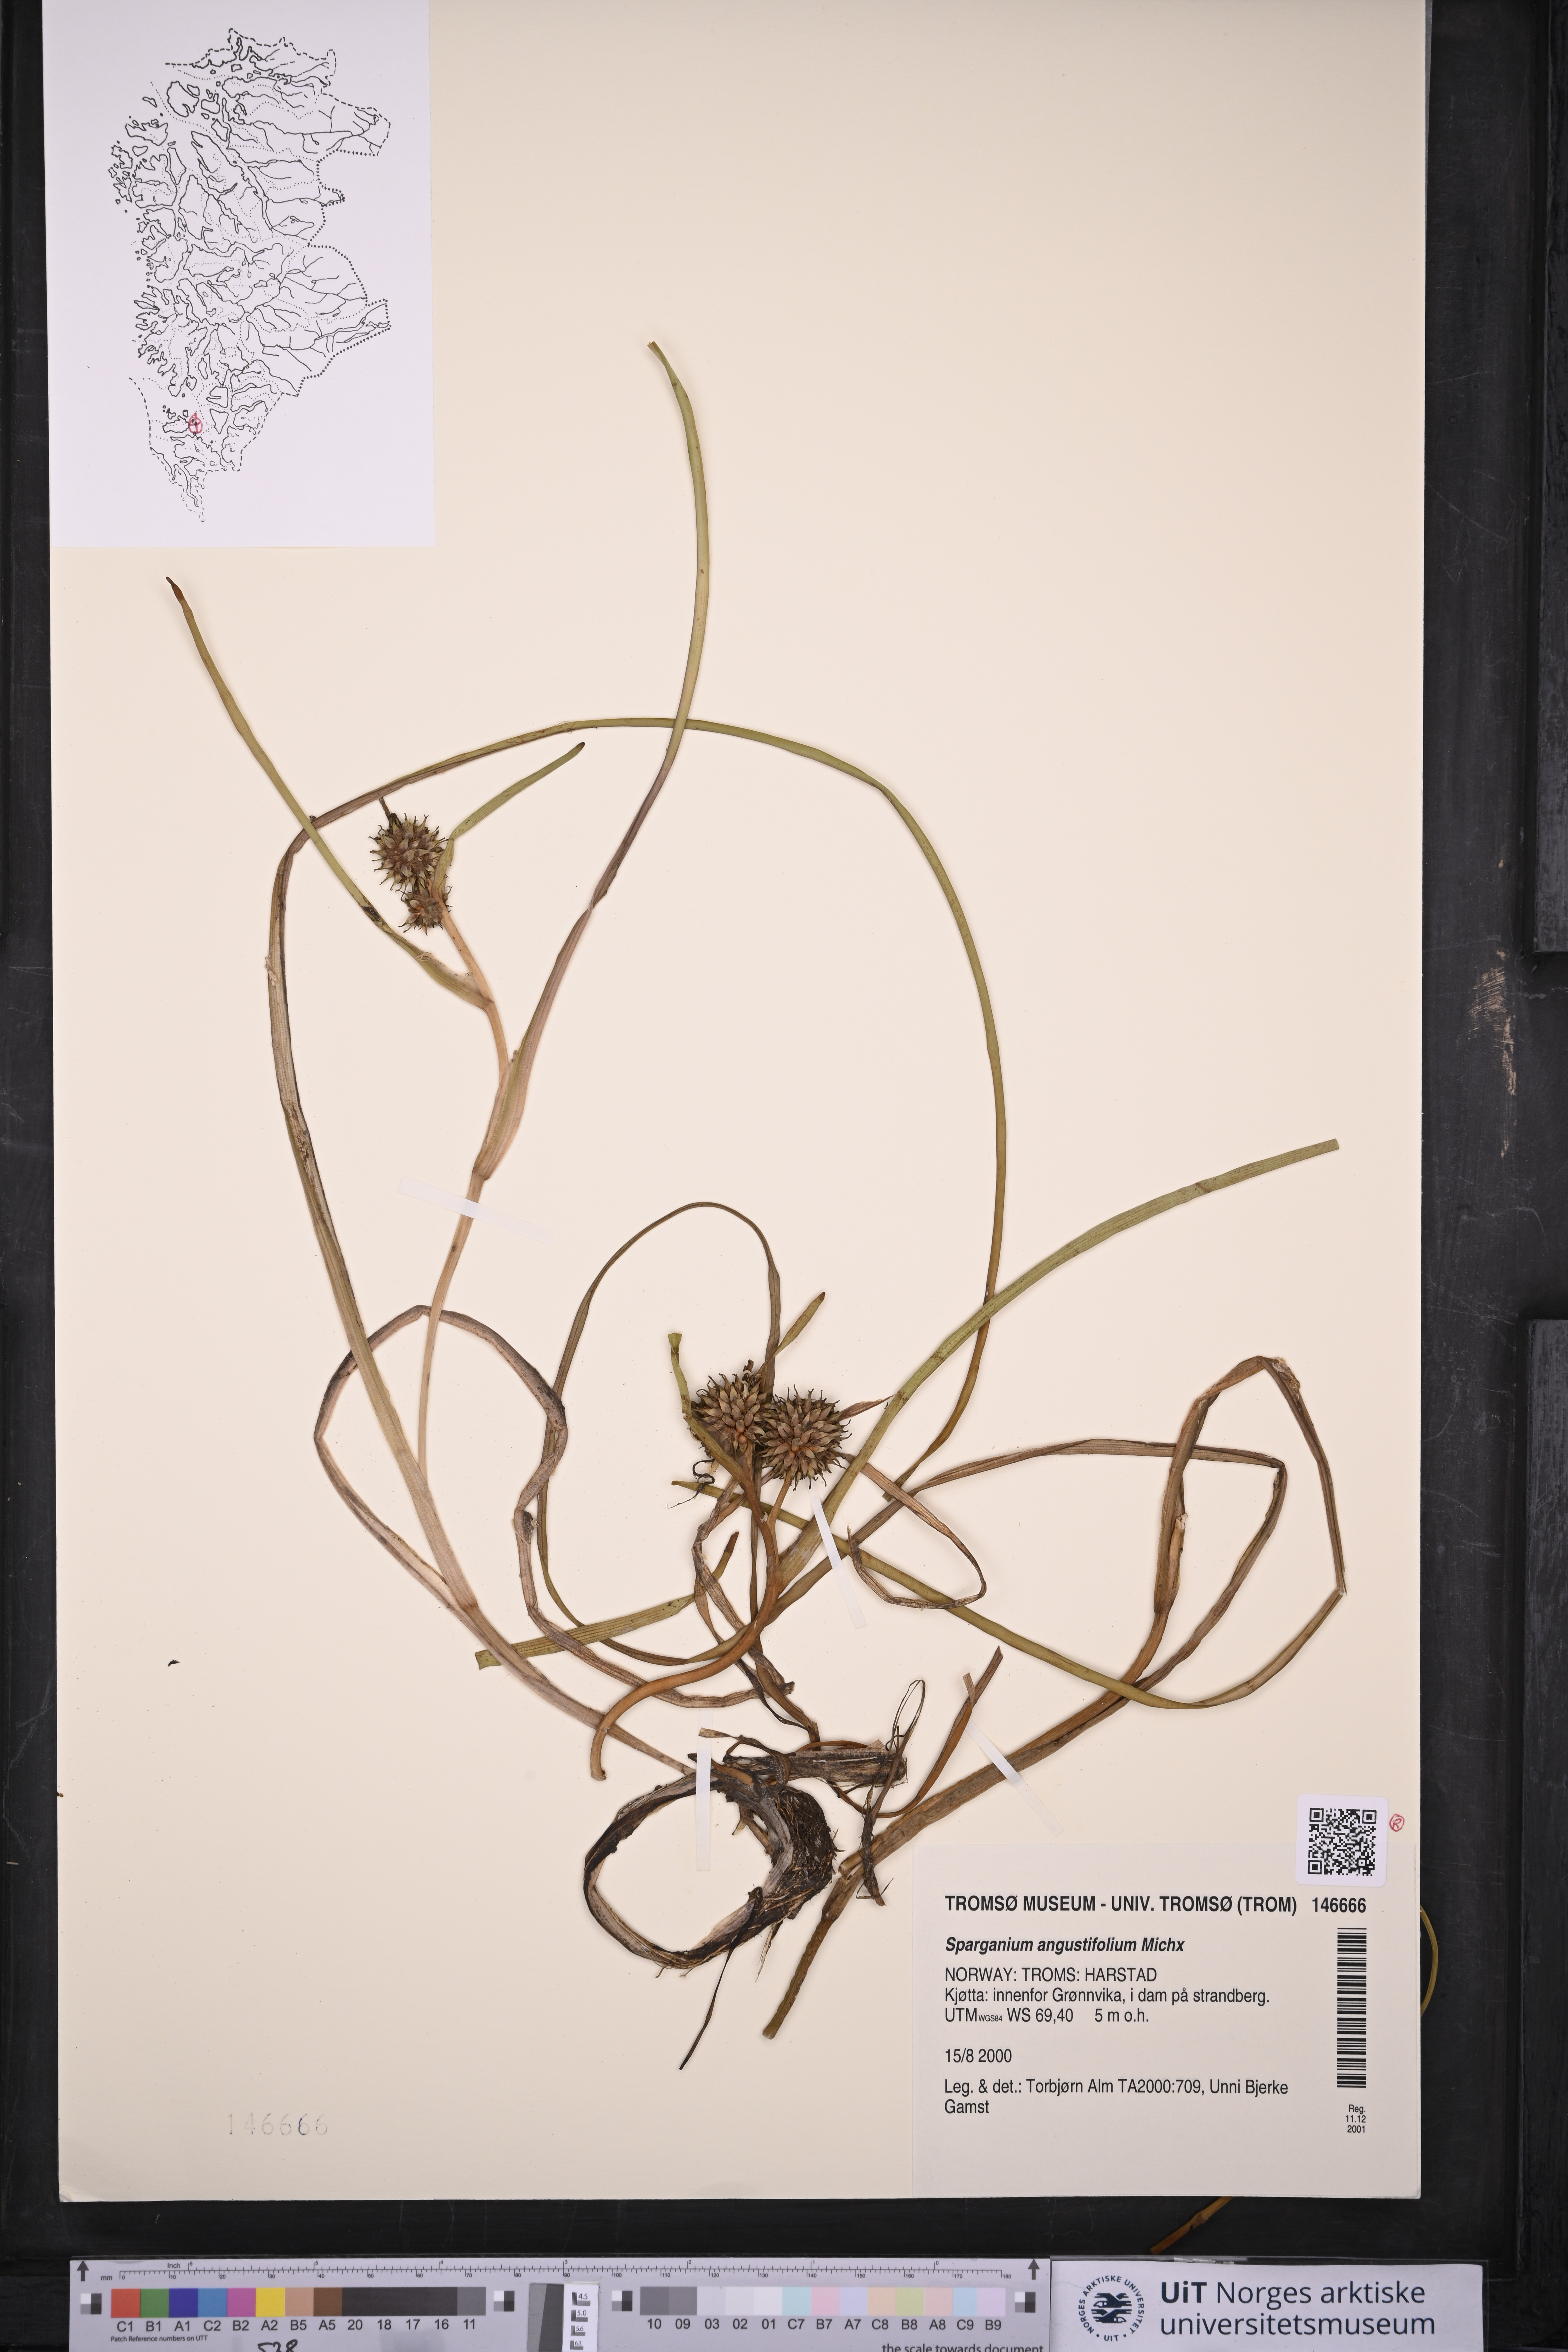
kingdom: Plantae
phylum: Tracheophyta
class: Liliopsida
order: Poales
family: Typhaceae
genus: Sparganium
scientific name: Sparganium angustifolium
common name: Floating bur-reed
